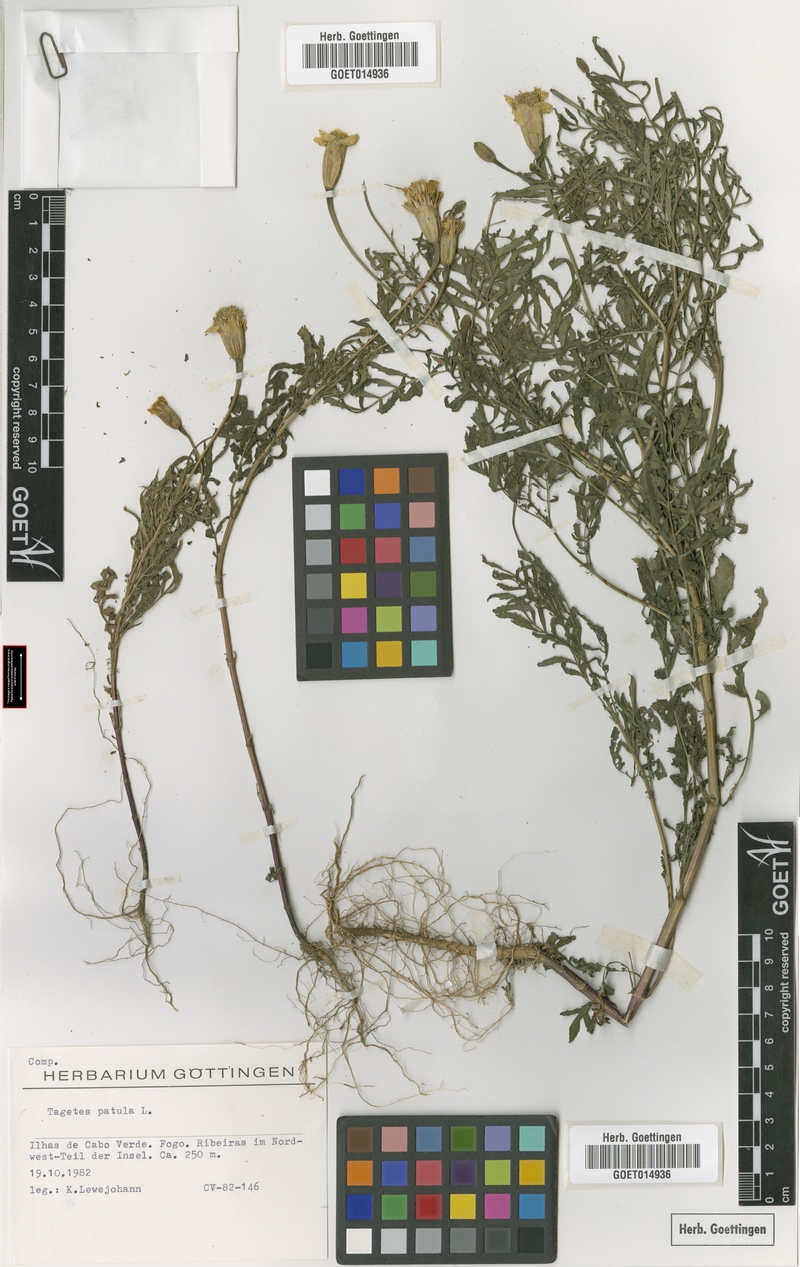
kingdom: Plantae
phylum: Tracheophyta
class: Magnoliopsida
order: Asterales
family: Asteraceae
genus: Tagetes
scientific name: Tagetes erecta
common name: African marigold
